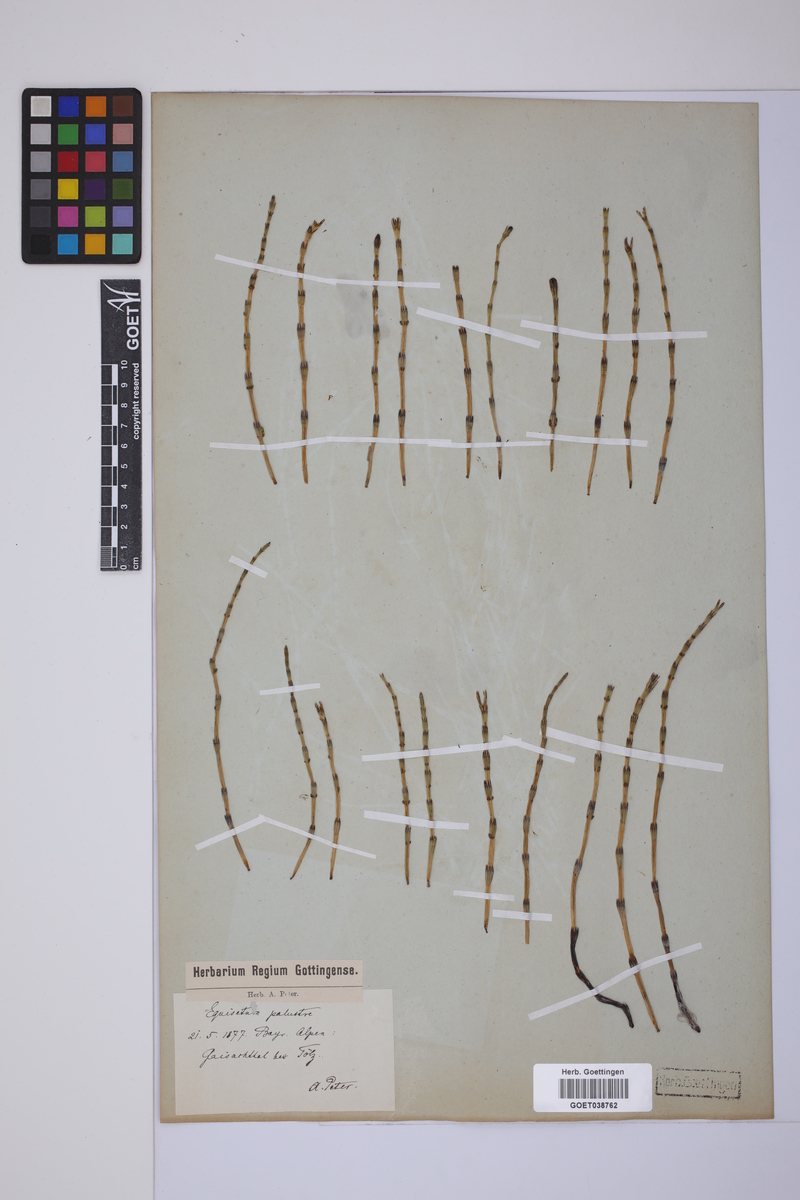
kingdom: Plantae
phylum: Tracheophyta
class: Polypodiopsida
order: Equisetales
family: Equisetaceae
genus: Equisetum
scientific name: Equisetum palustre
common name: Marsh horsetail
